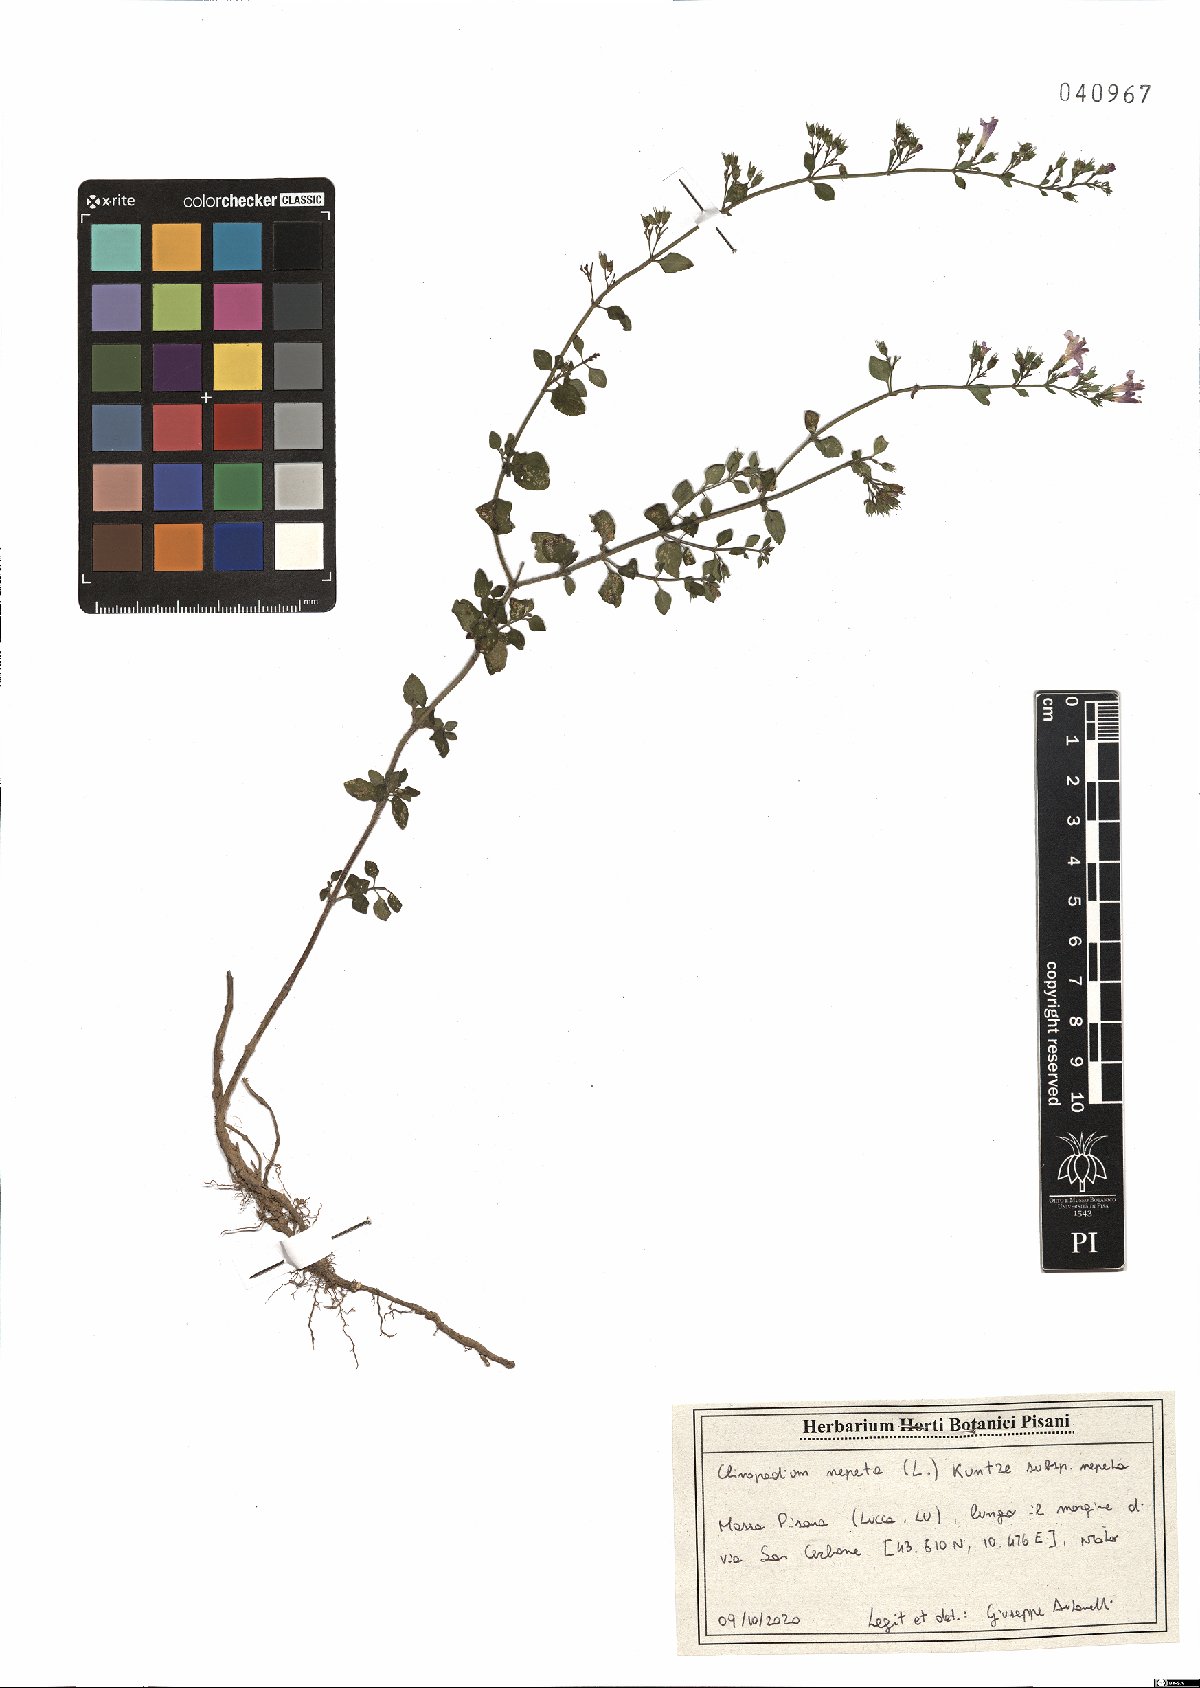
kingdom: Plantae
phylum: Tracheophyta
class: Magnoliopsida
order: Lamiales
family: Lamiaceae
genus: Clinopodium
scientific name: Clinopodium nepeta
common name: Lesser calamint
